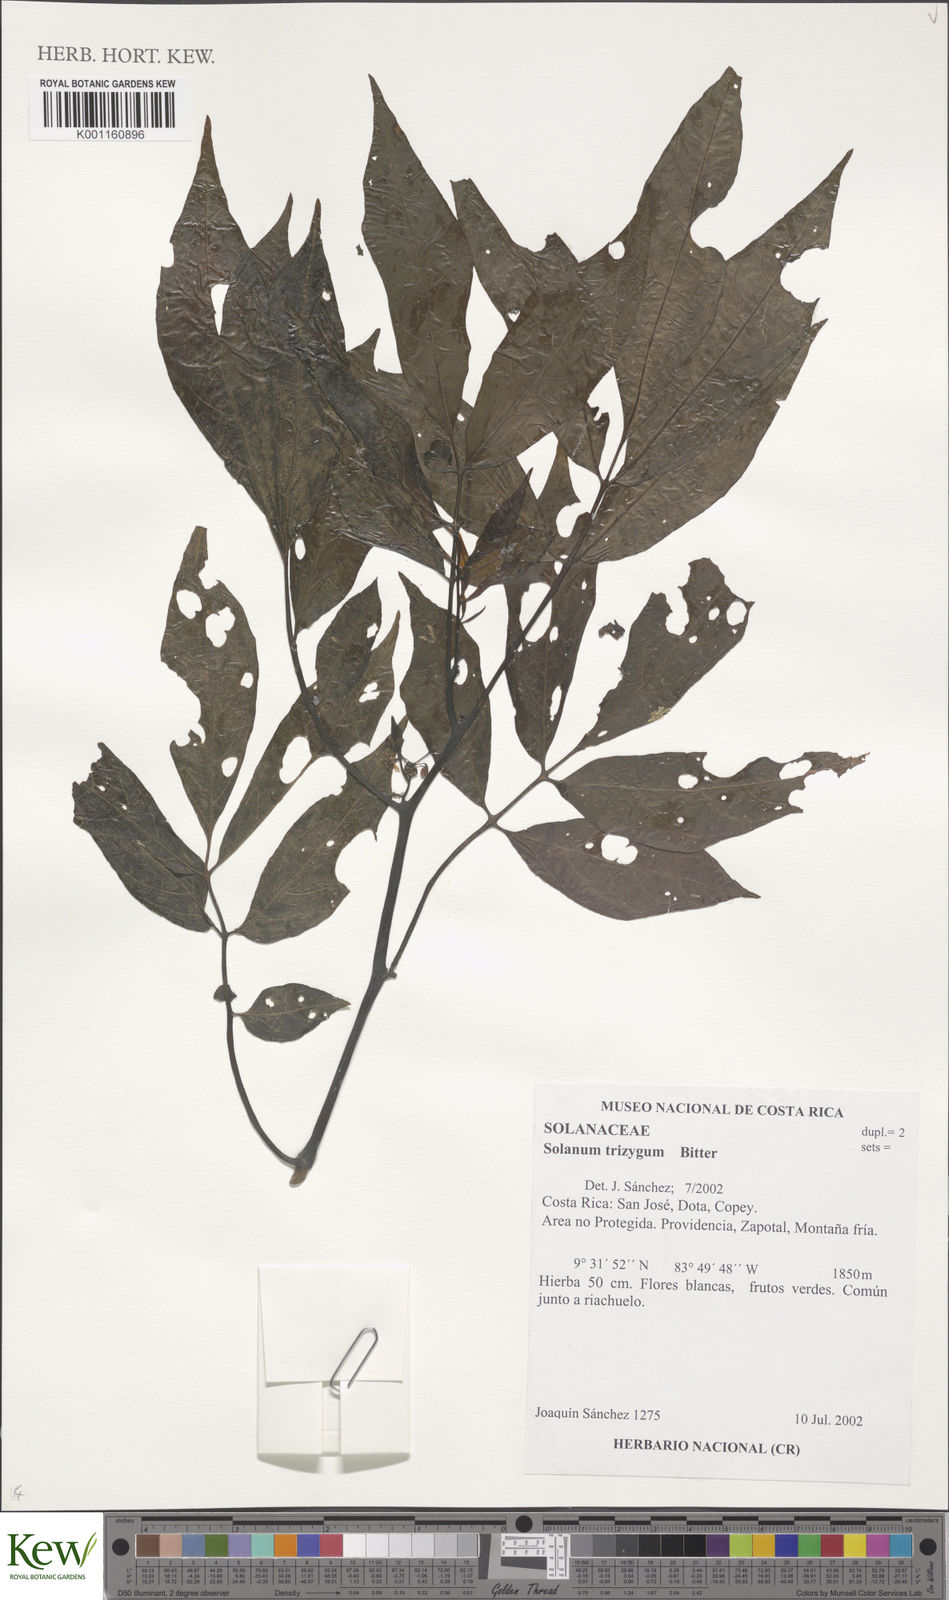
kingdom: Plantae
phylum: Tracheophyta
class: Magnoliopsida
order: Solanales
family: Solanaceae
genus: Solanum
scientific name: Solanum trizygum
